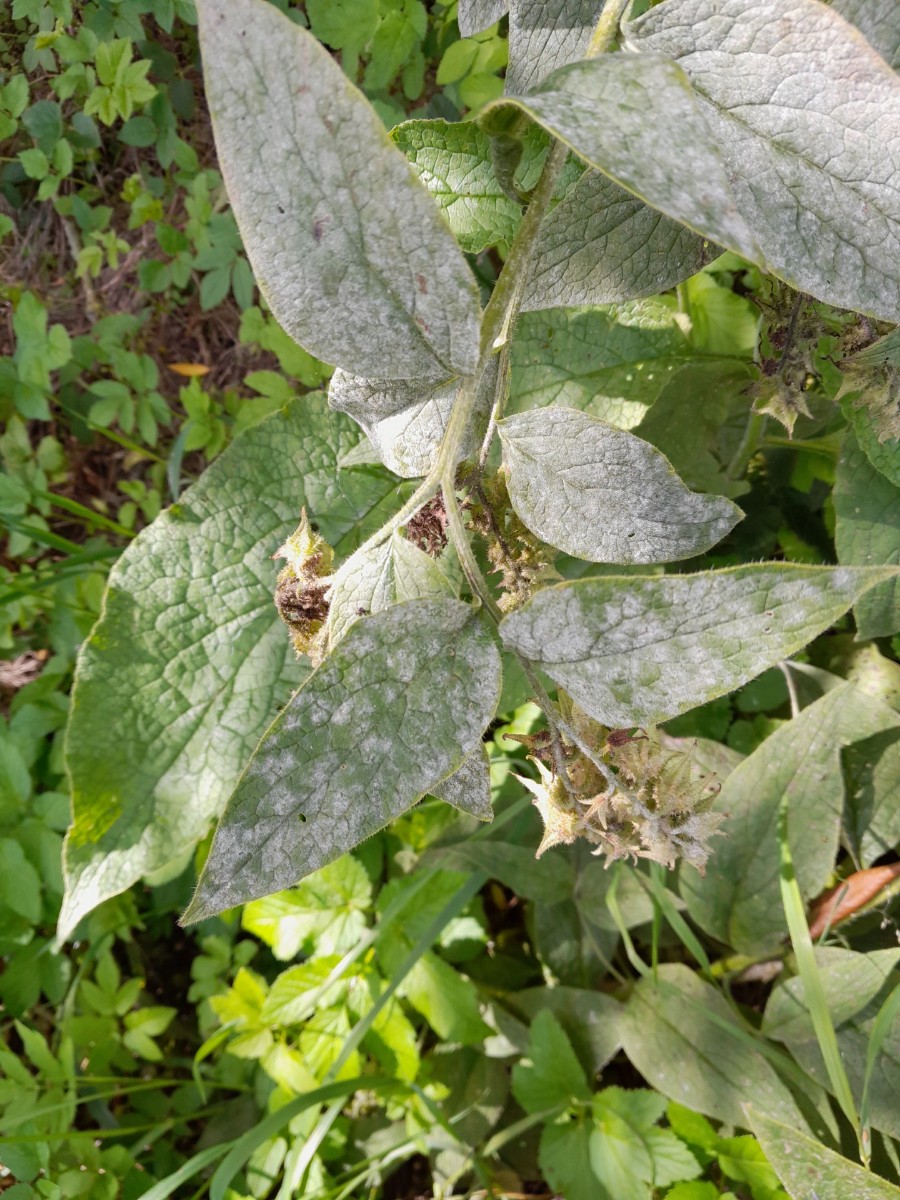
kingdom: Fungi
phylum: Ascomycota
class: Leotiomycetes
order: Helotiales
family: Erysiphaceae
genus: Golovinomyces
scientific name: Golovinomyces asperifoliorum
